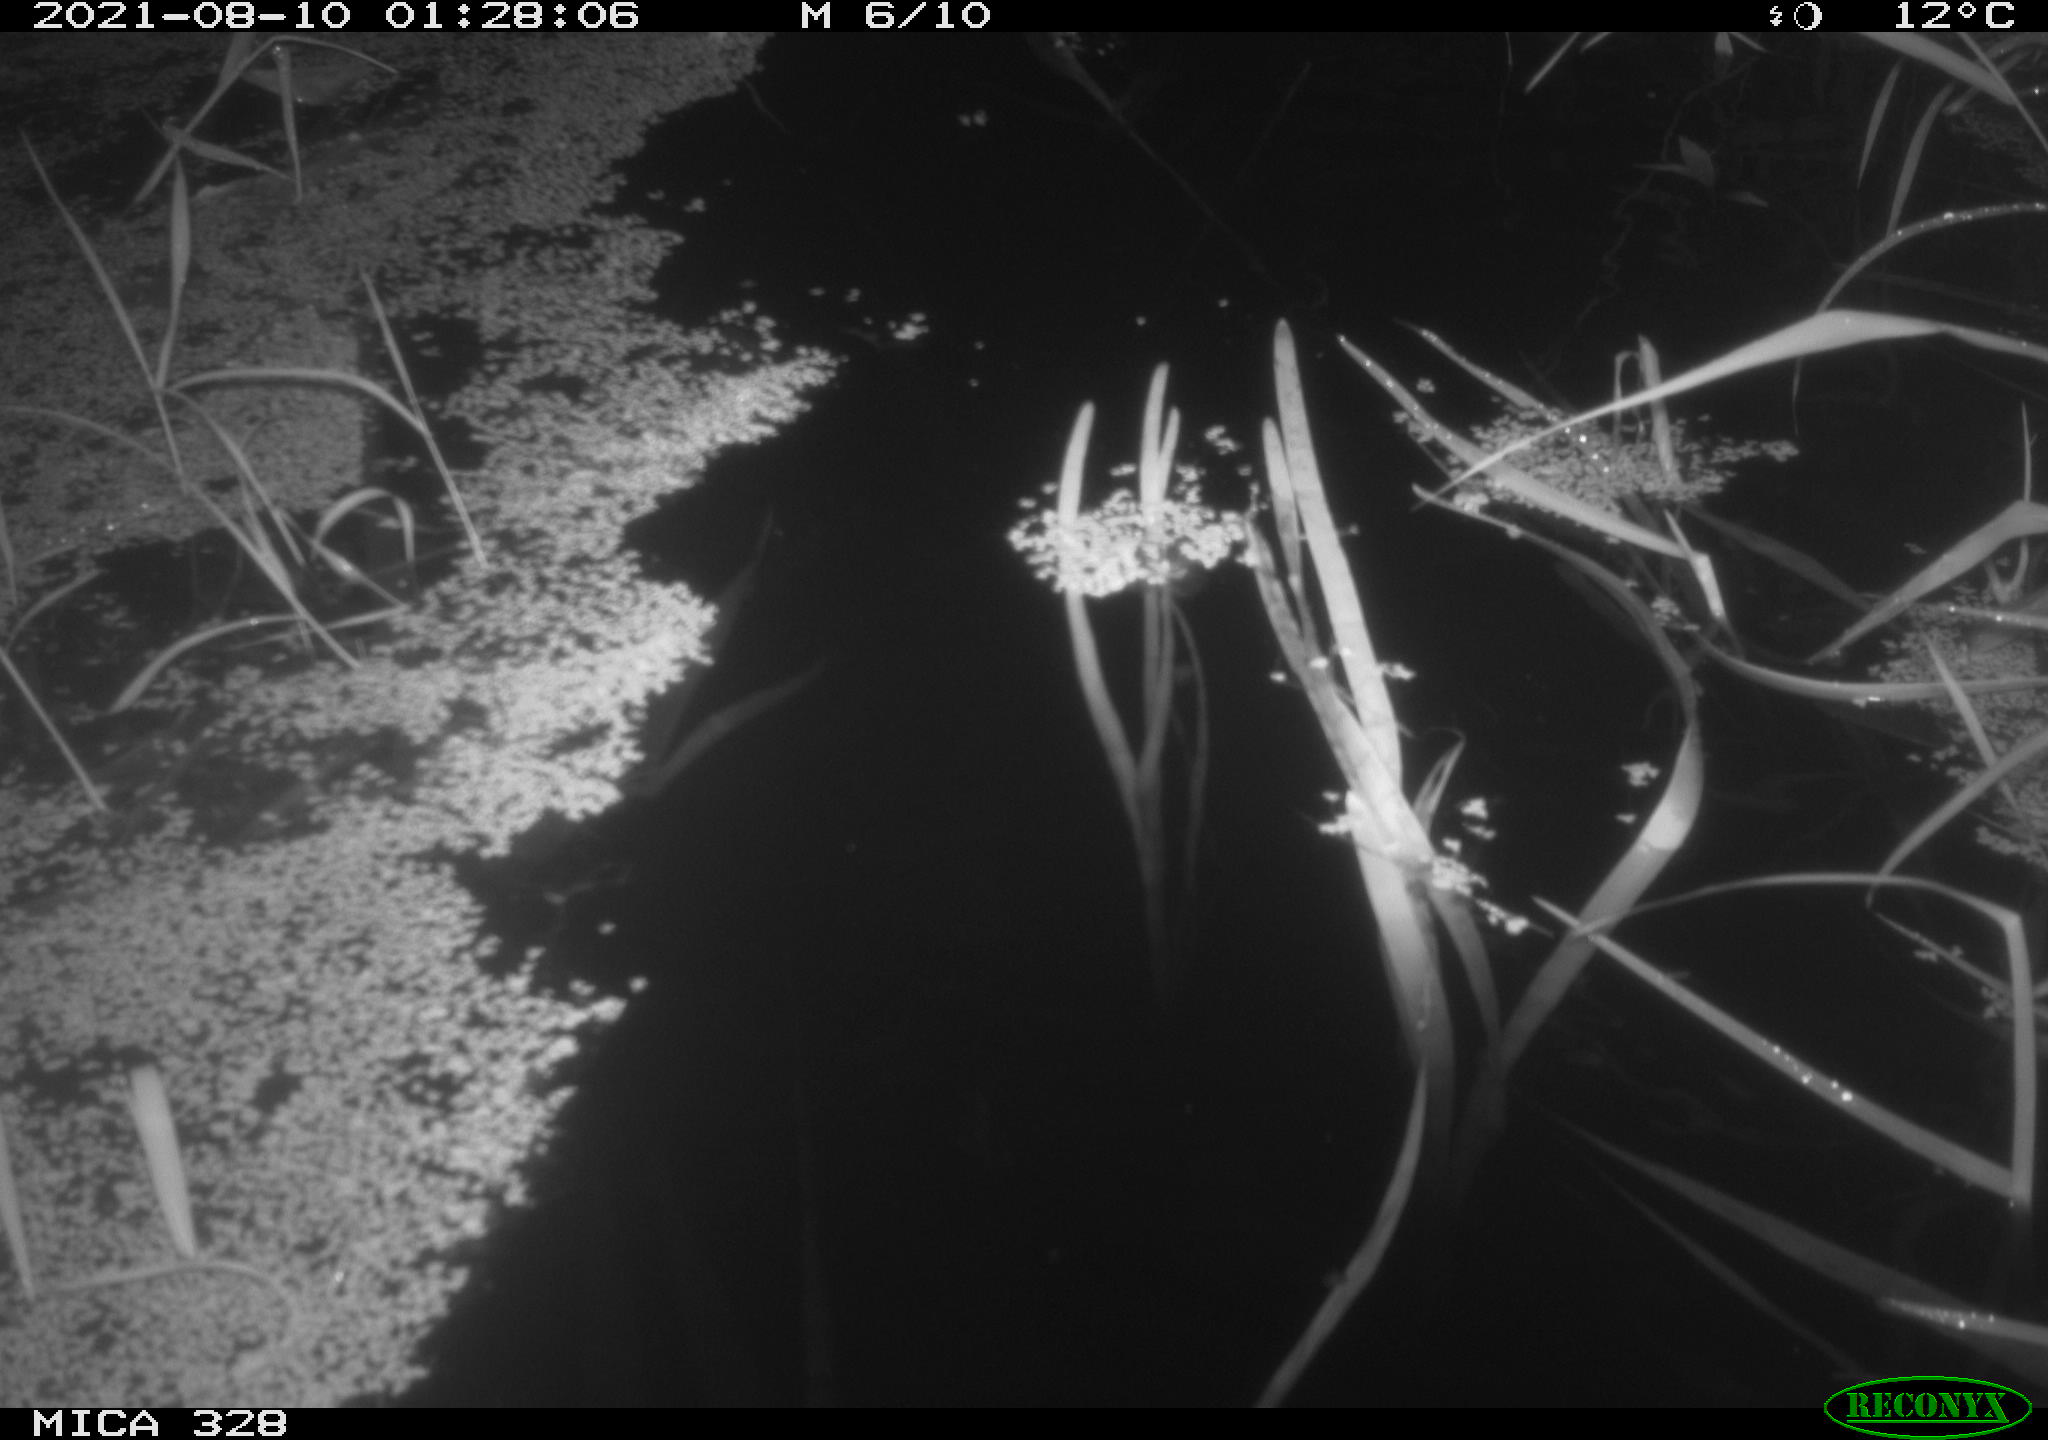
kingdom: Animalia
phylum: Chordata
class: Mammalia
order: Rodentia
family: Cricetidae
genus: Ondatra
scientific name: Ondatra zibethicus
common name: Muskrat
